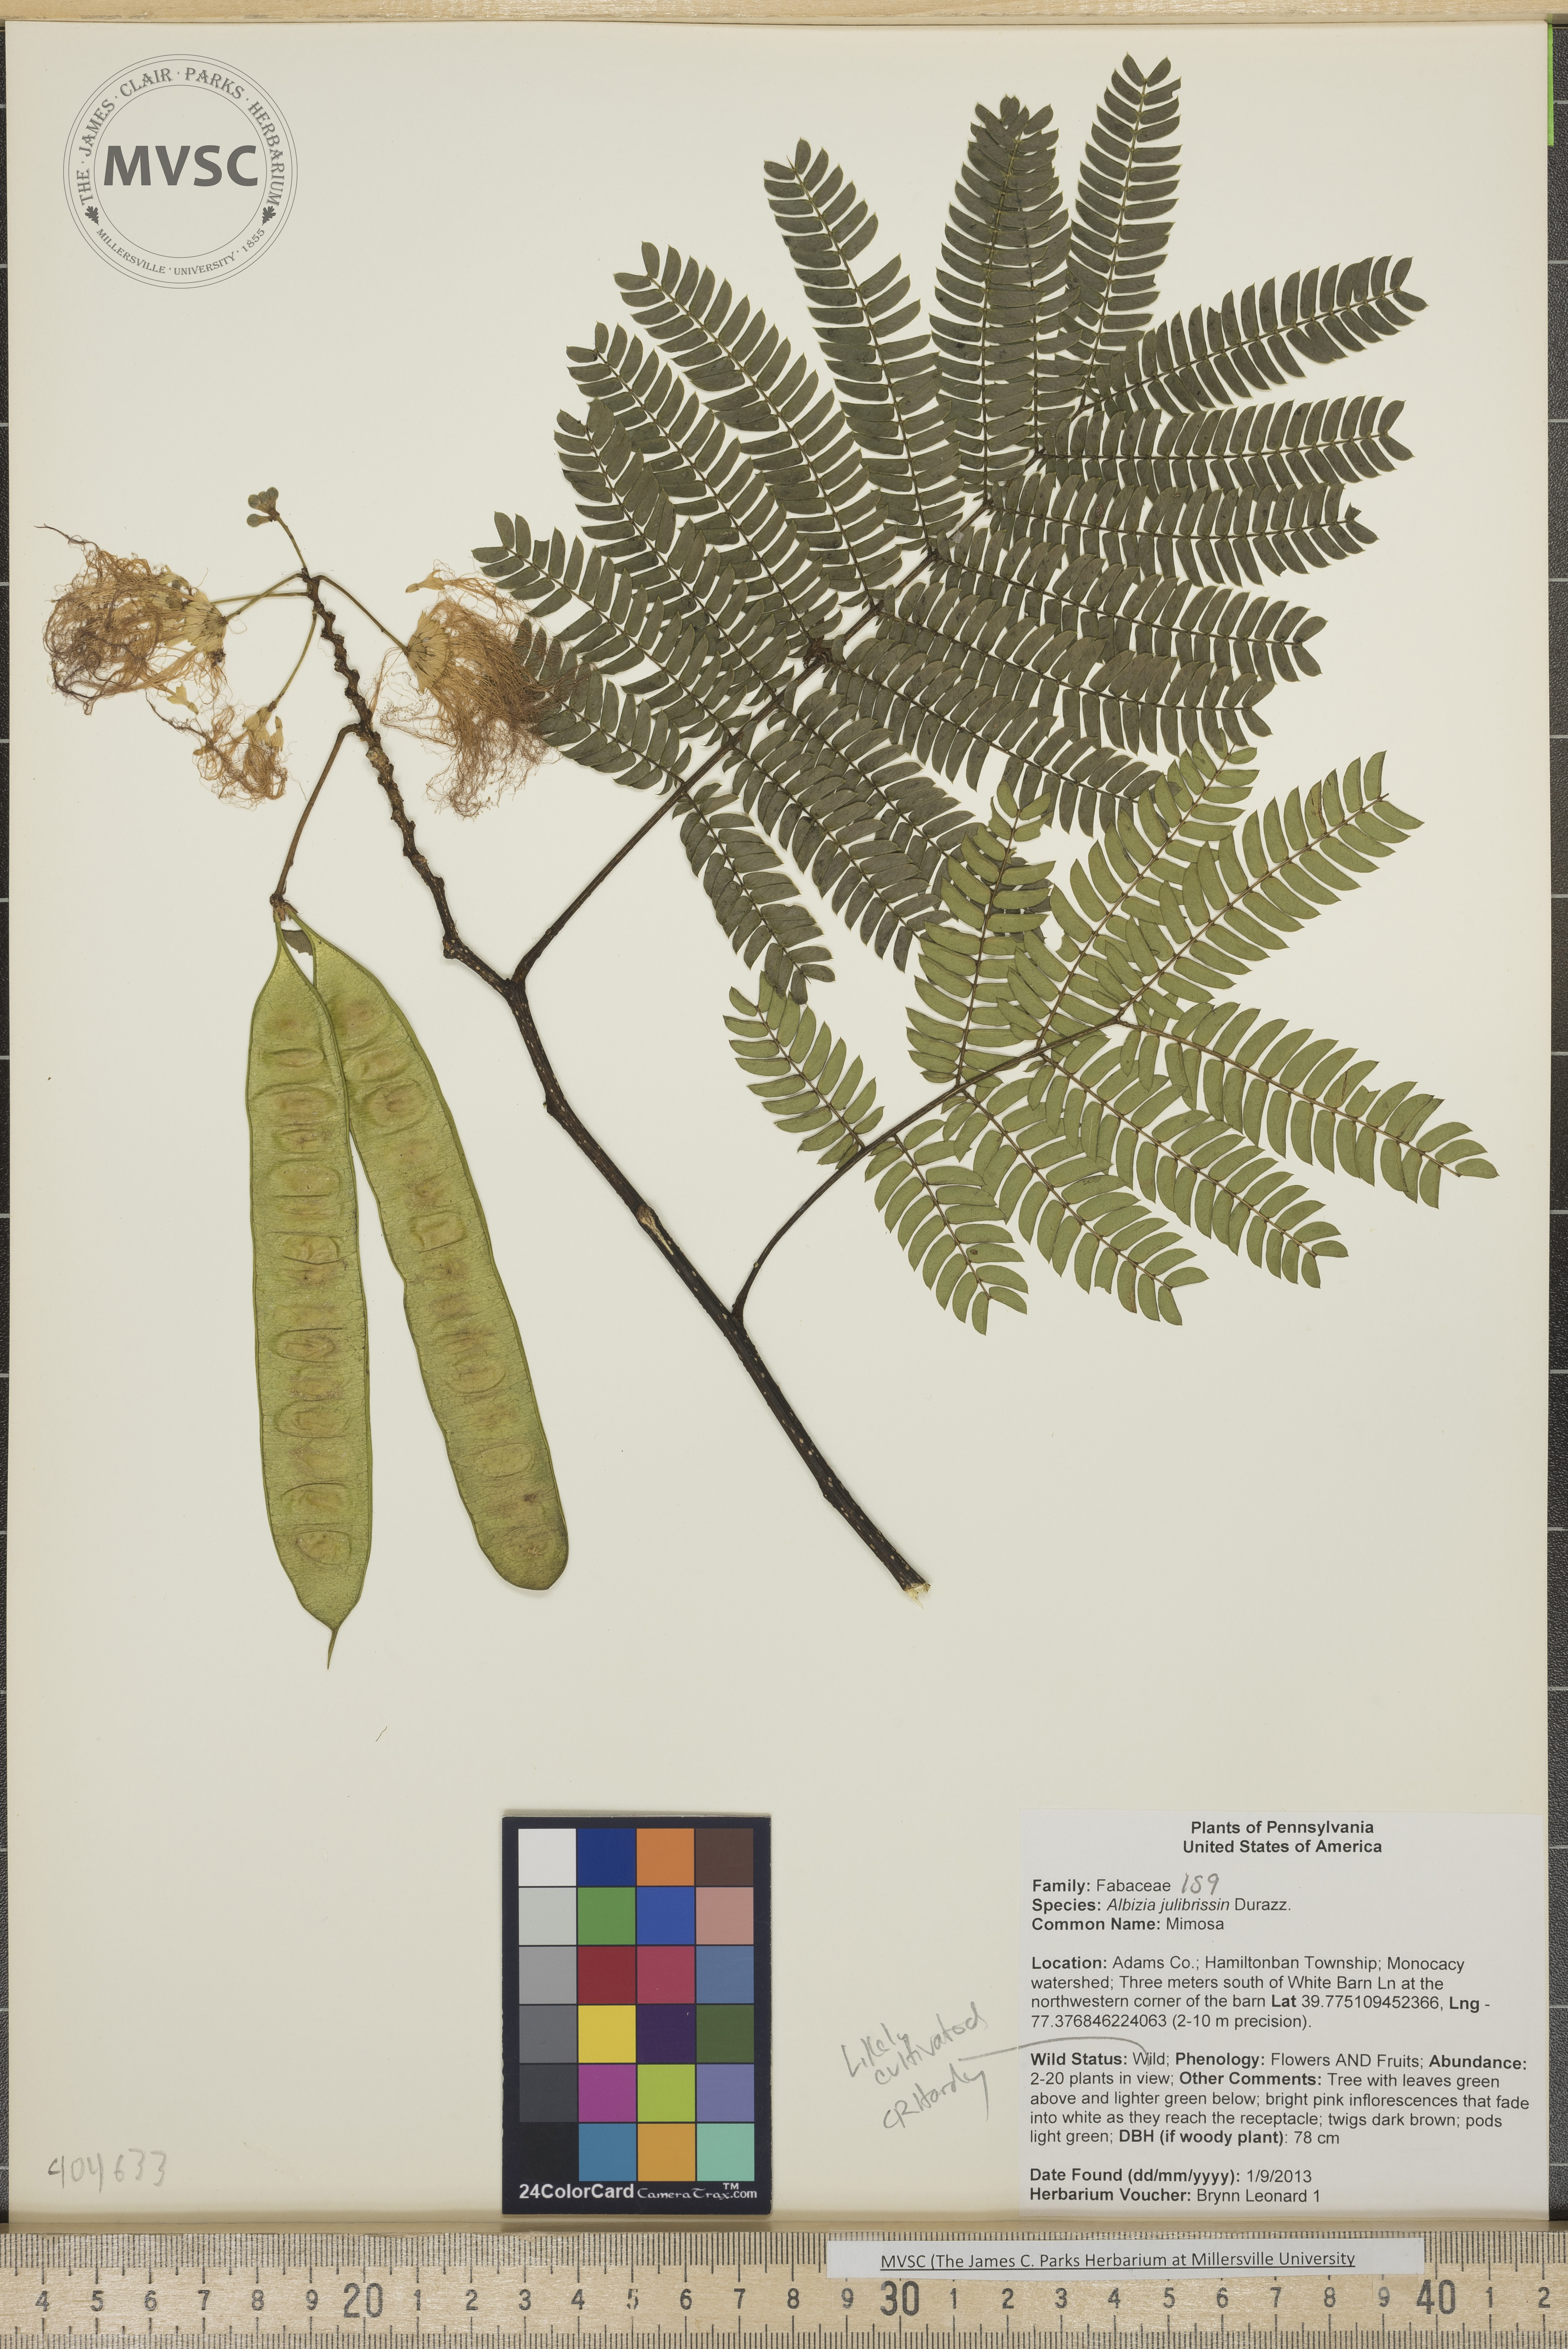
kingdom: Plantae
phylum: Tracheophyta
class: Magnoliopsida
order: Fabales
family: Fabaceae
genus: Albizia
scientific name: Albizia julibrissin
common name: Mimosa
